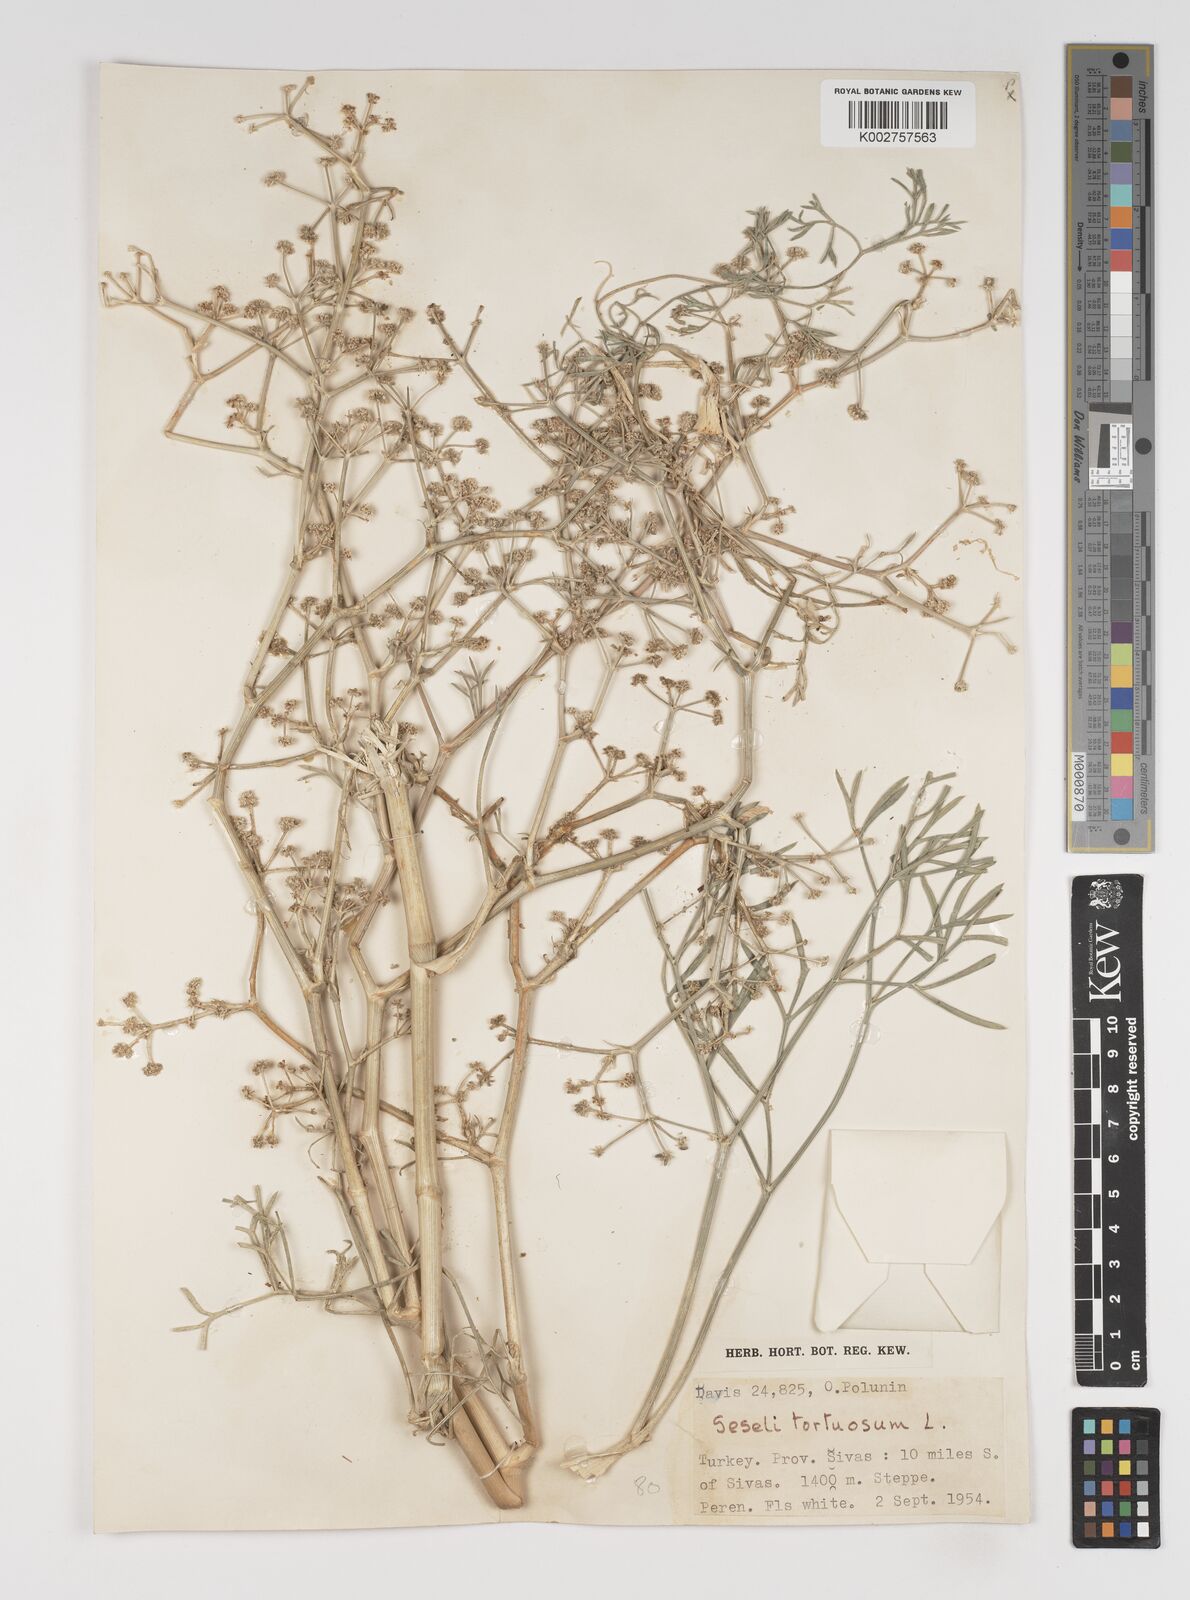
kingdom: Plantae
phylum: Tracheophyta
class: Magnoliopsida
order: Apiales
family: Apiaceae
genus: Seseli
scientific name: Seseli tortuosum
